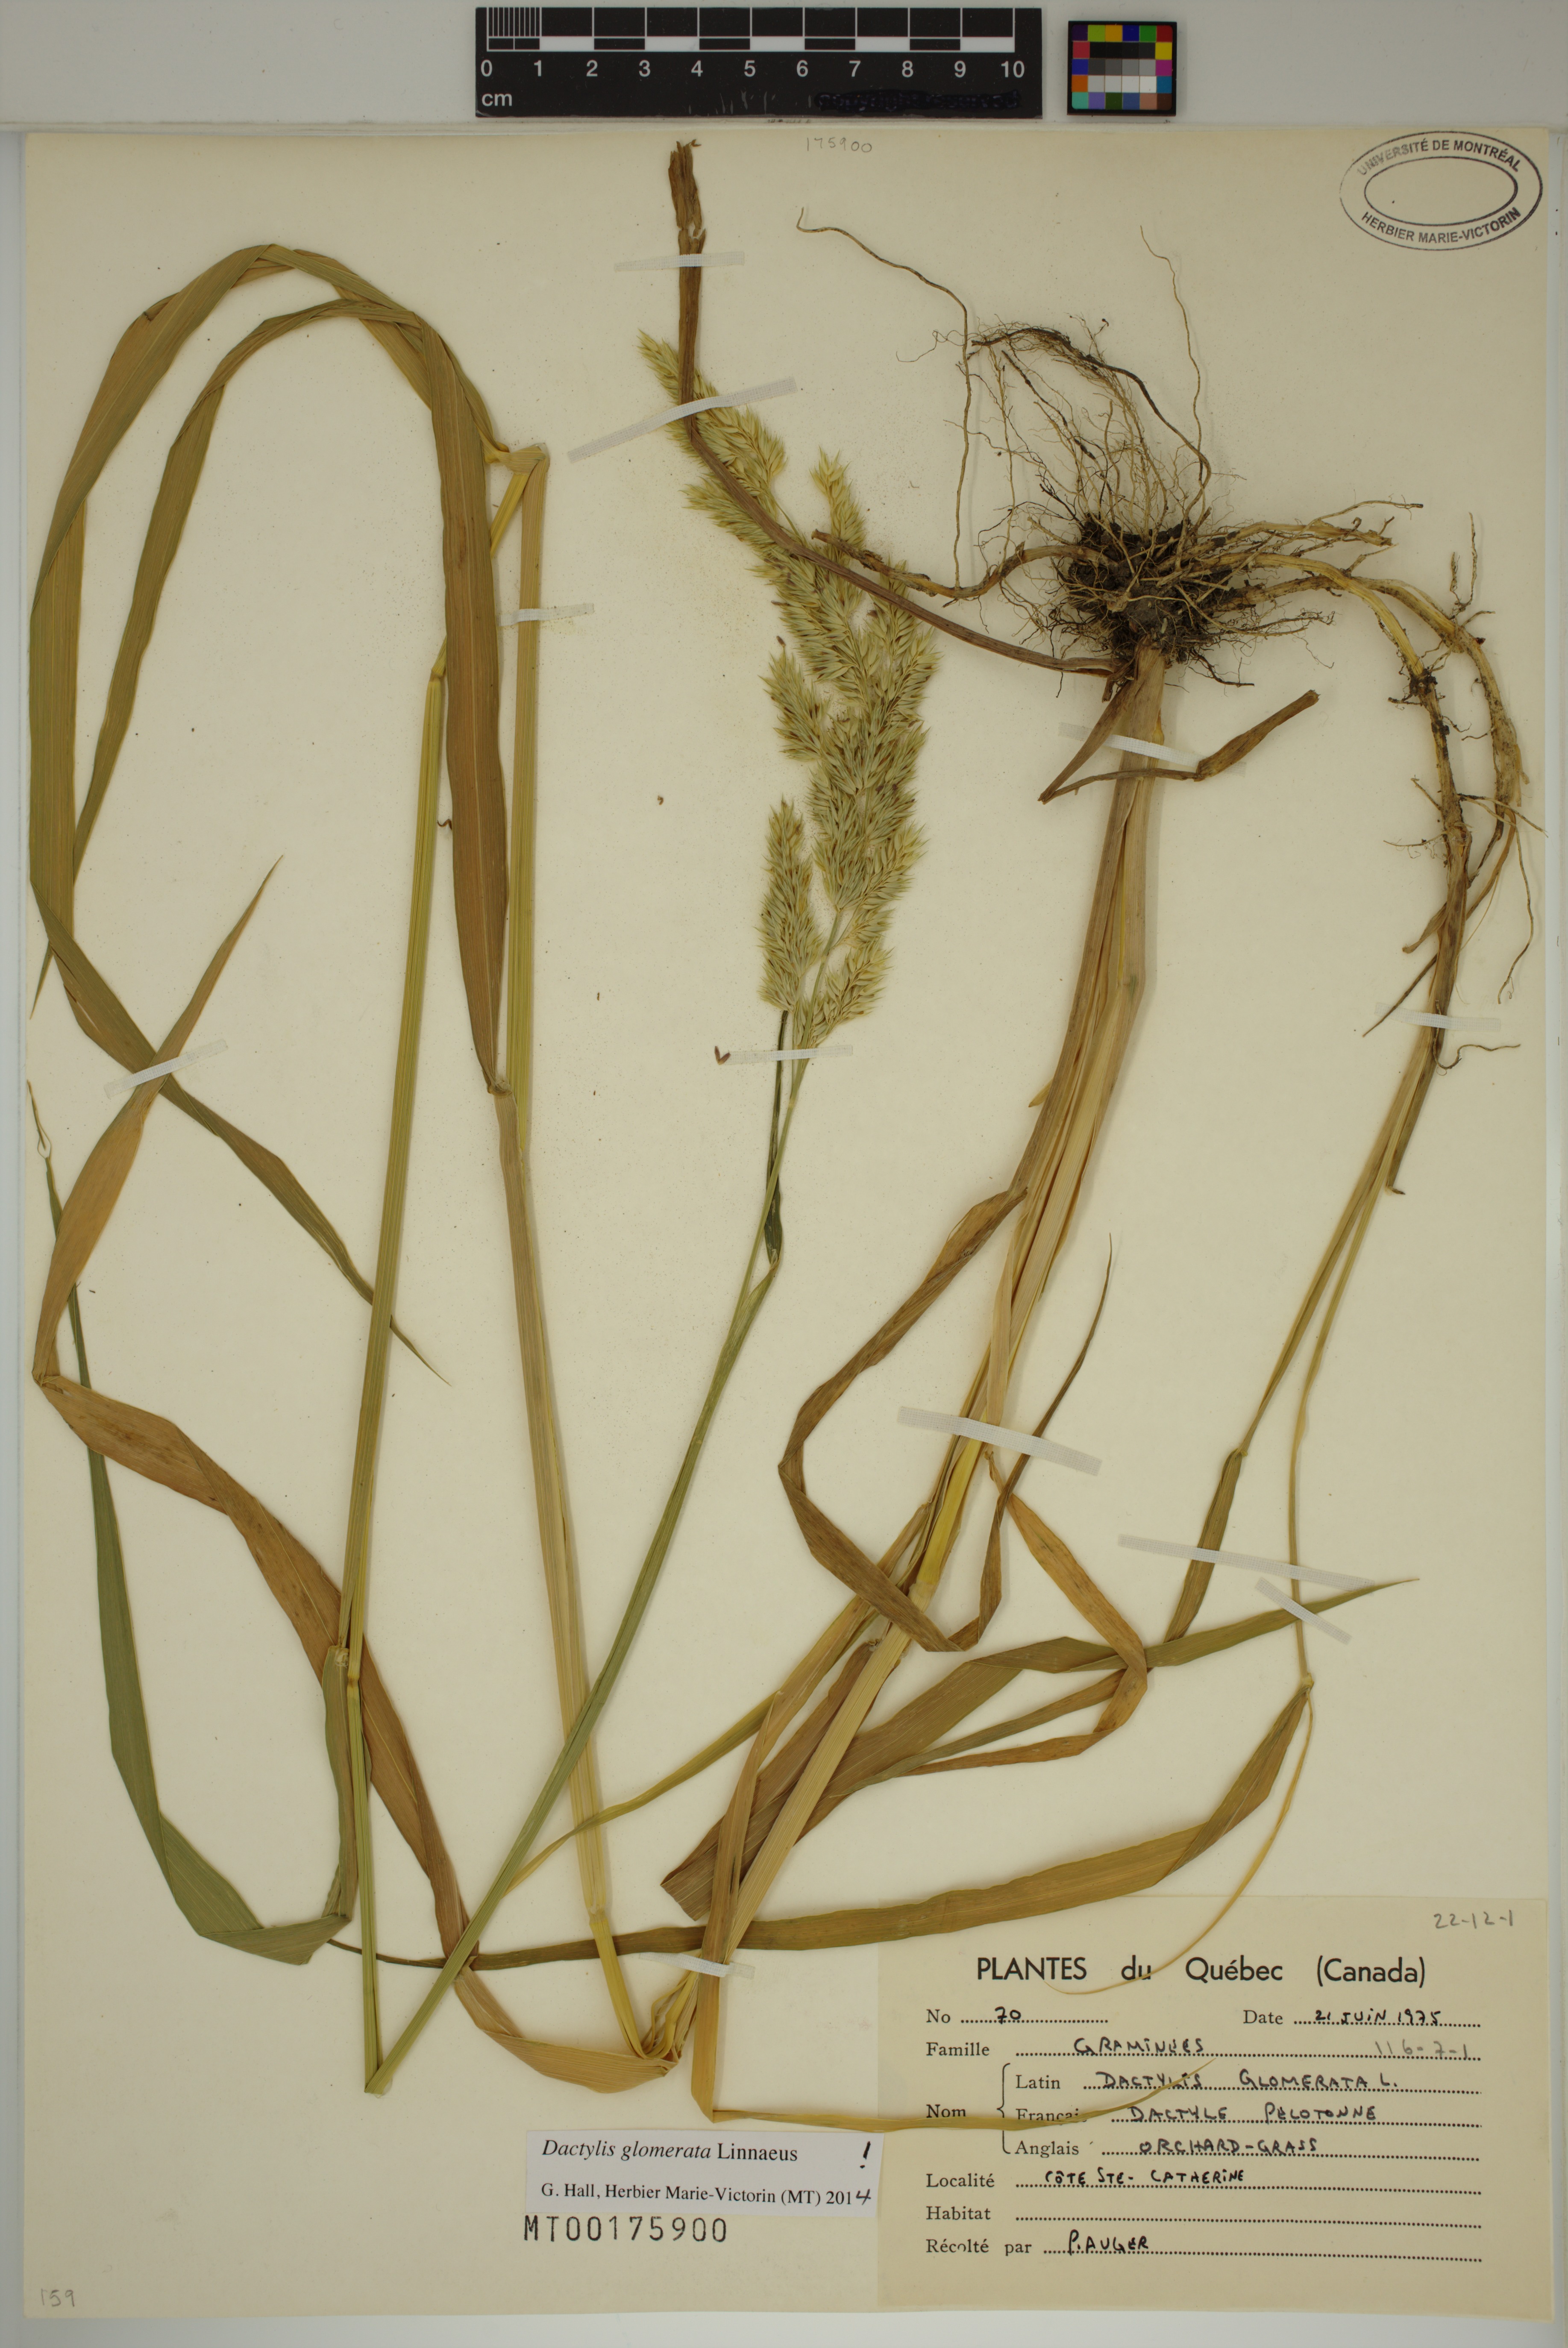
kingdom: Plantae
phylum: Tracheophyta
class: Liliopsida
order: Poales
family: Poaceae
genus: Dactylis
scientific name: Dactylis glomerata
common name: Orchardgrass
